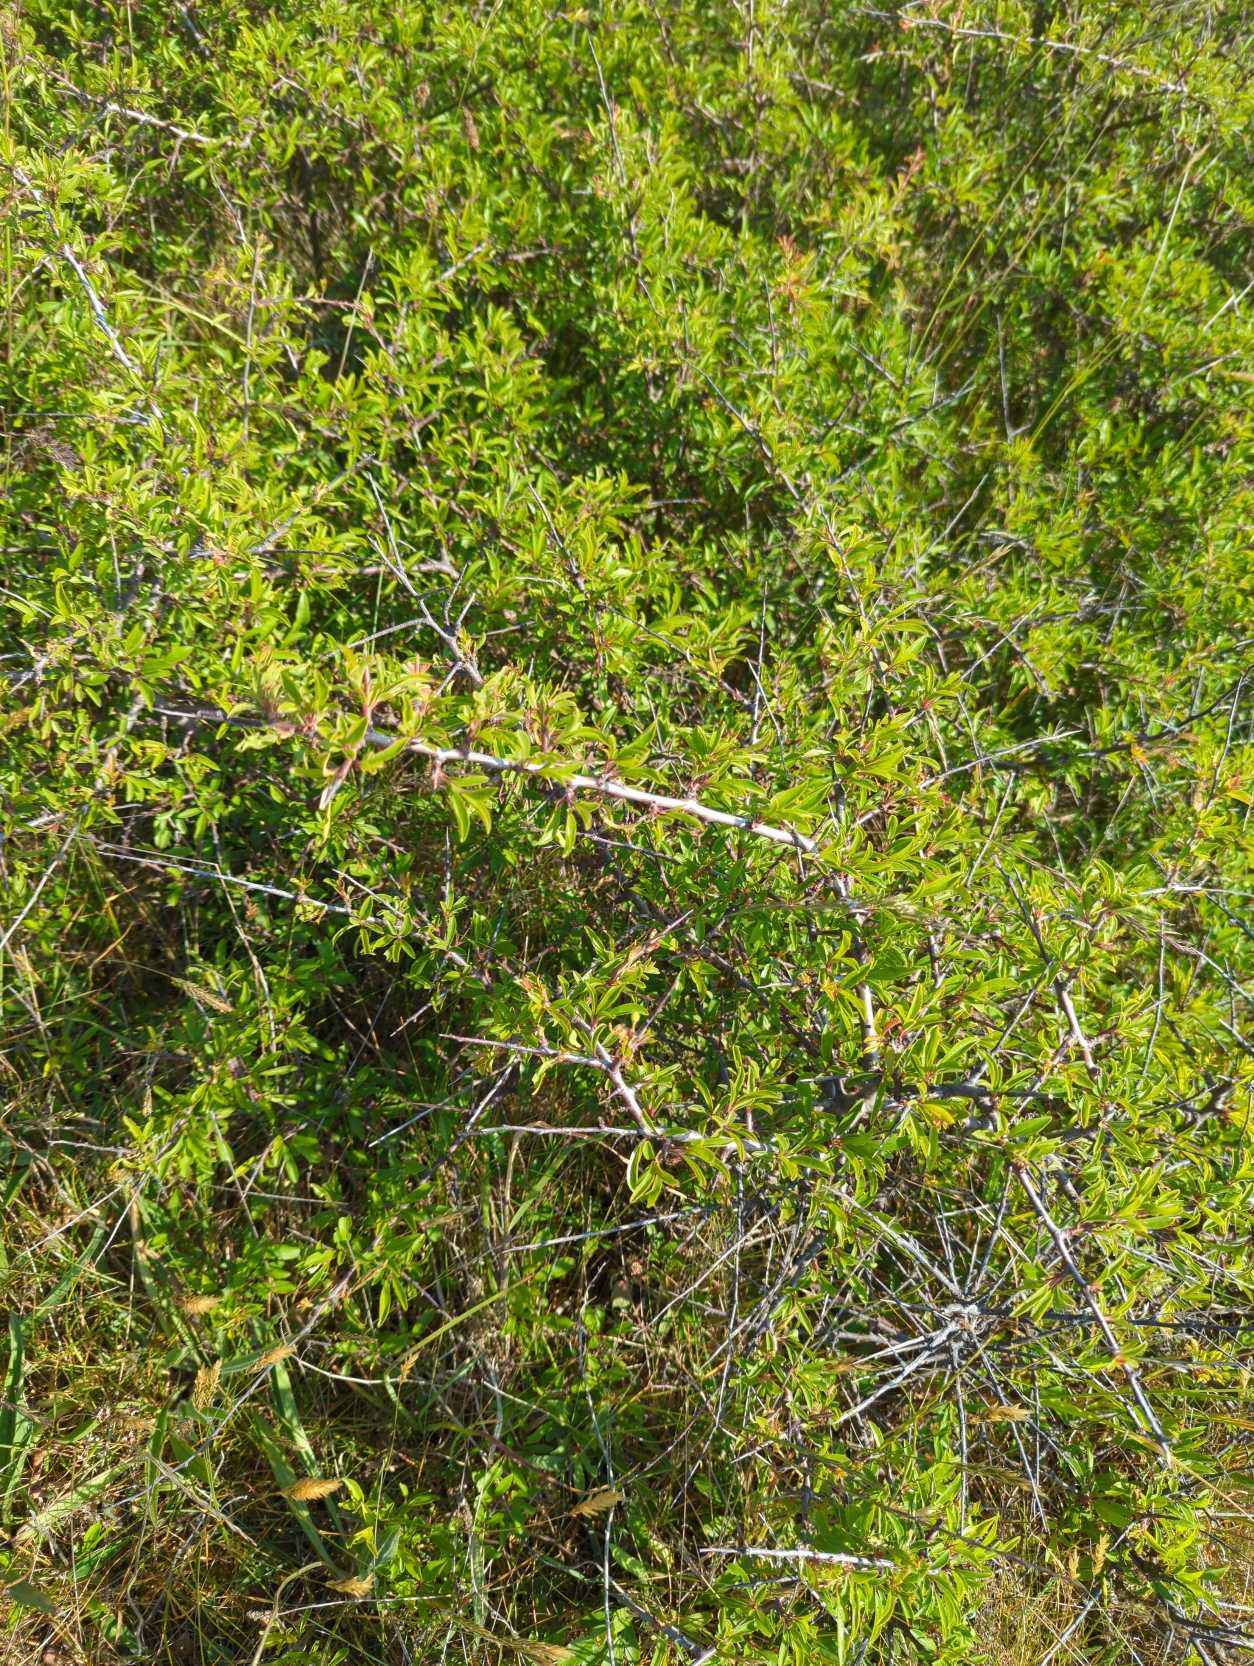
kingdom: Plantae
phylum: Tracheophyta
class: Magnoliopsida
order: Rosales
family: Rosaceae
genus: Prunus
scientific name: Prunus spinosa
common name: Slåen
